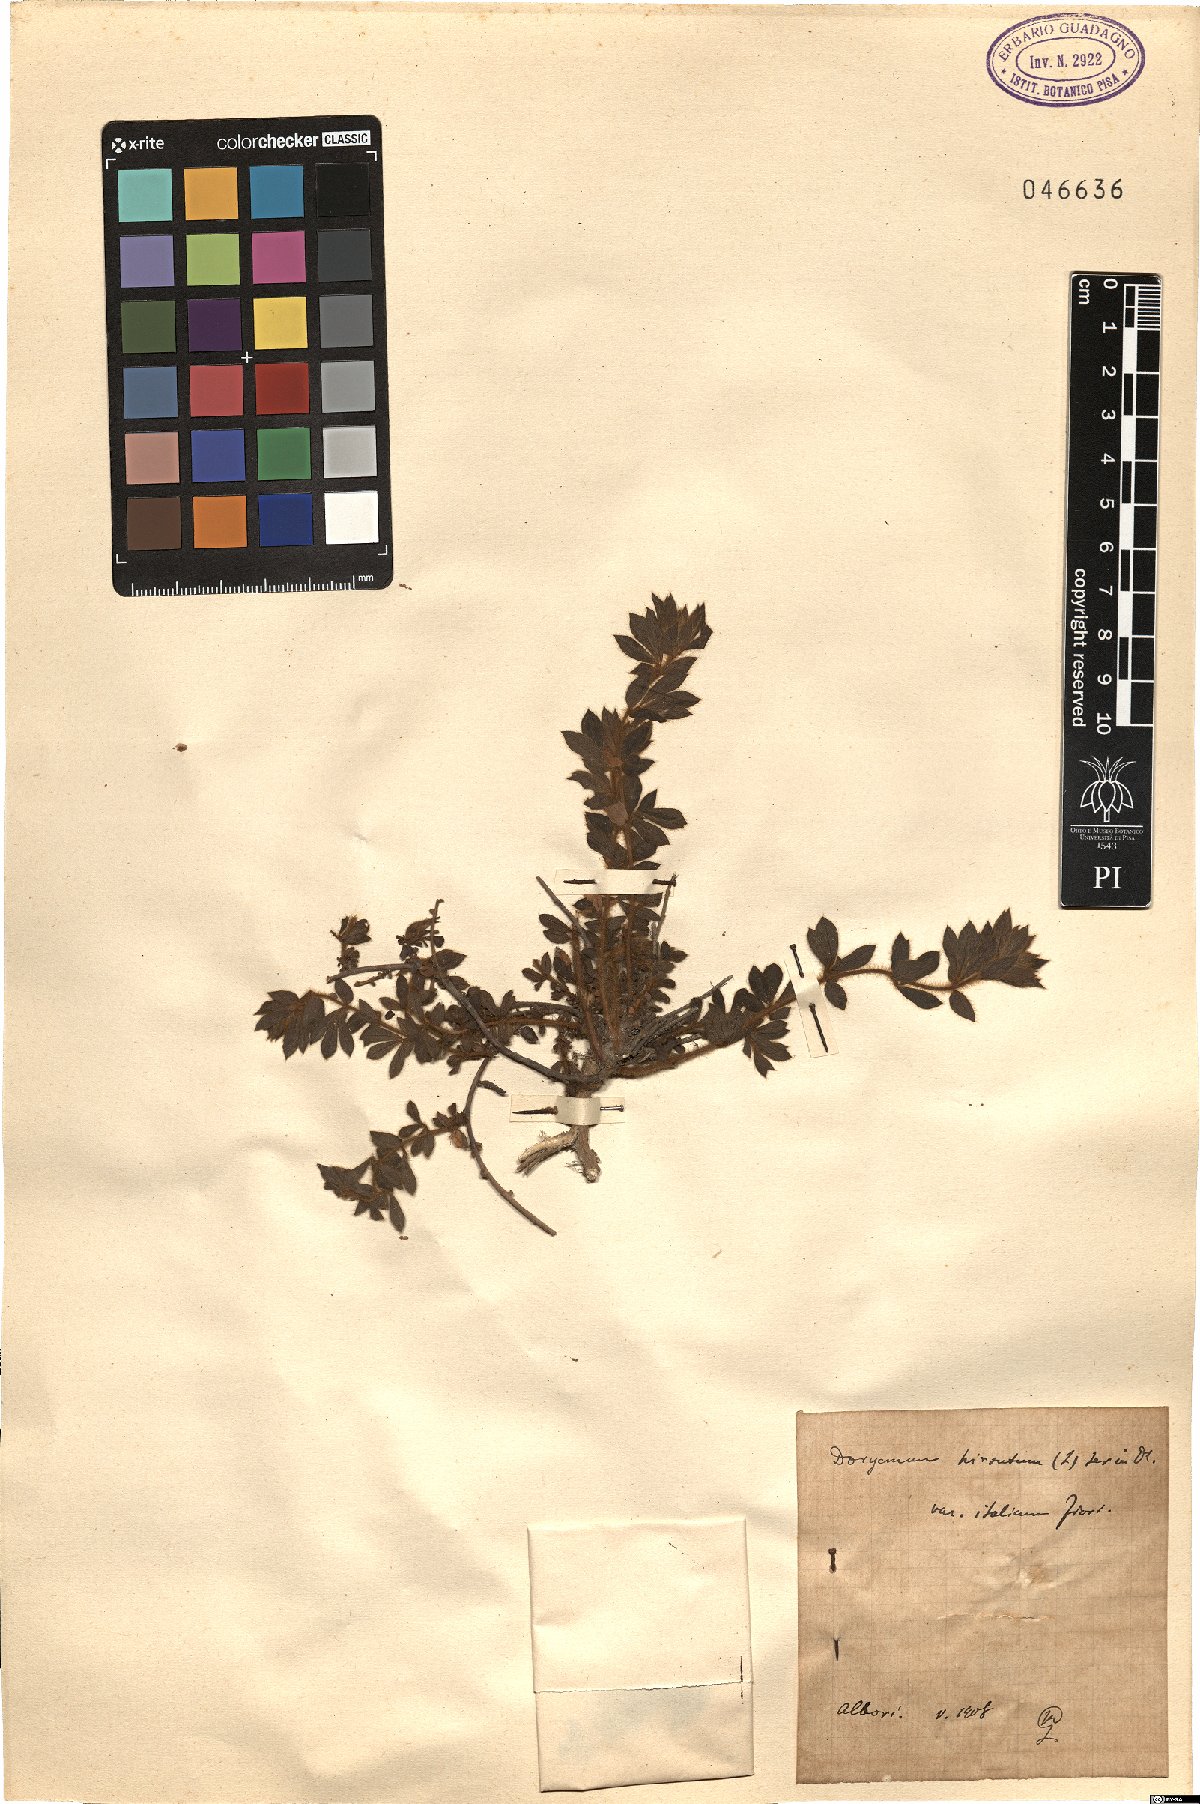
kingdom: Plantae
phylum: Tracheophyta
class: Magnoliopsida
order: Fabales
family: Fabaceae
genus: Lotus
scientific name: Lotus hirsutus
